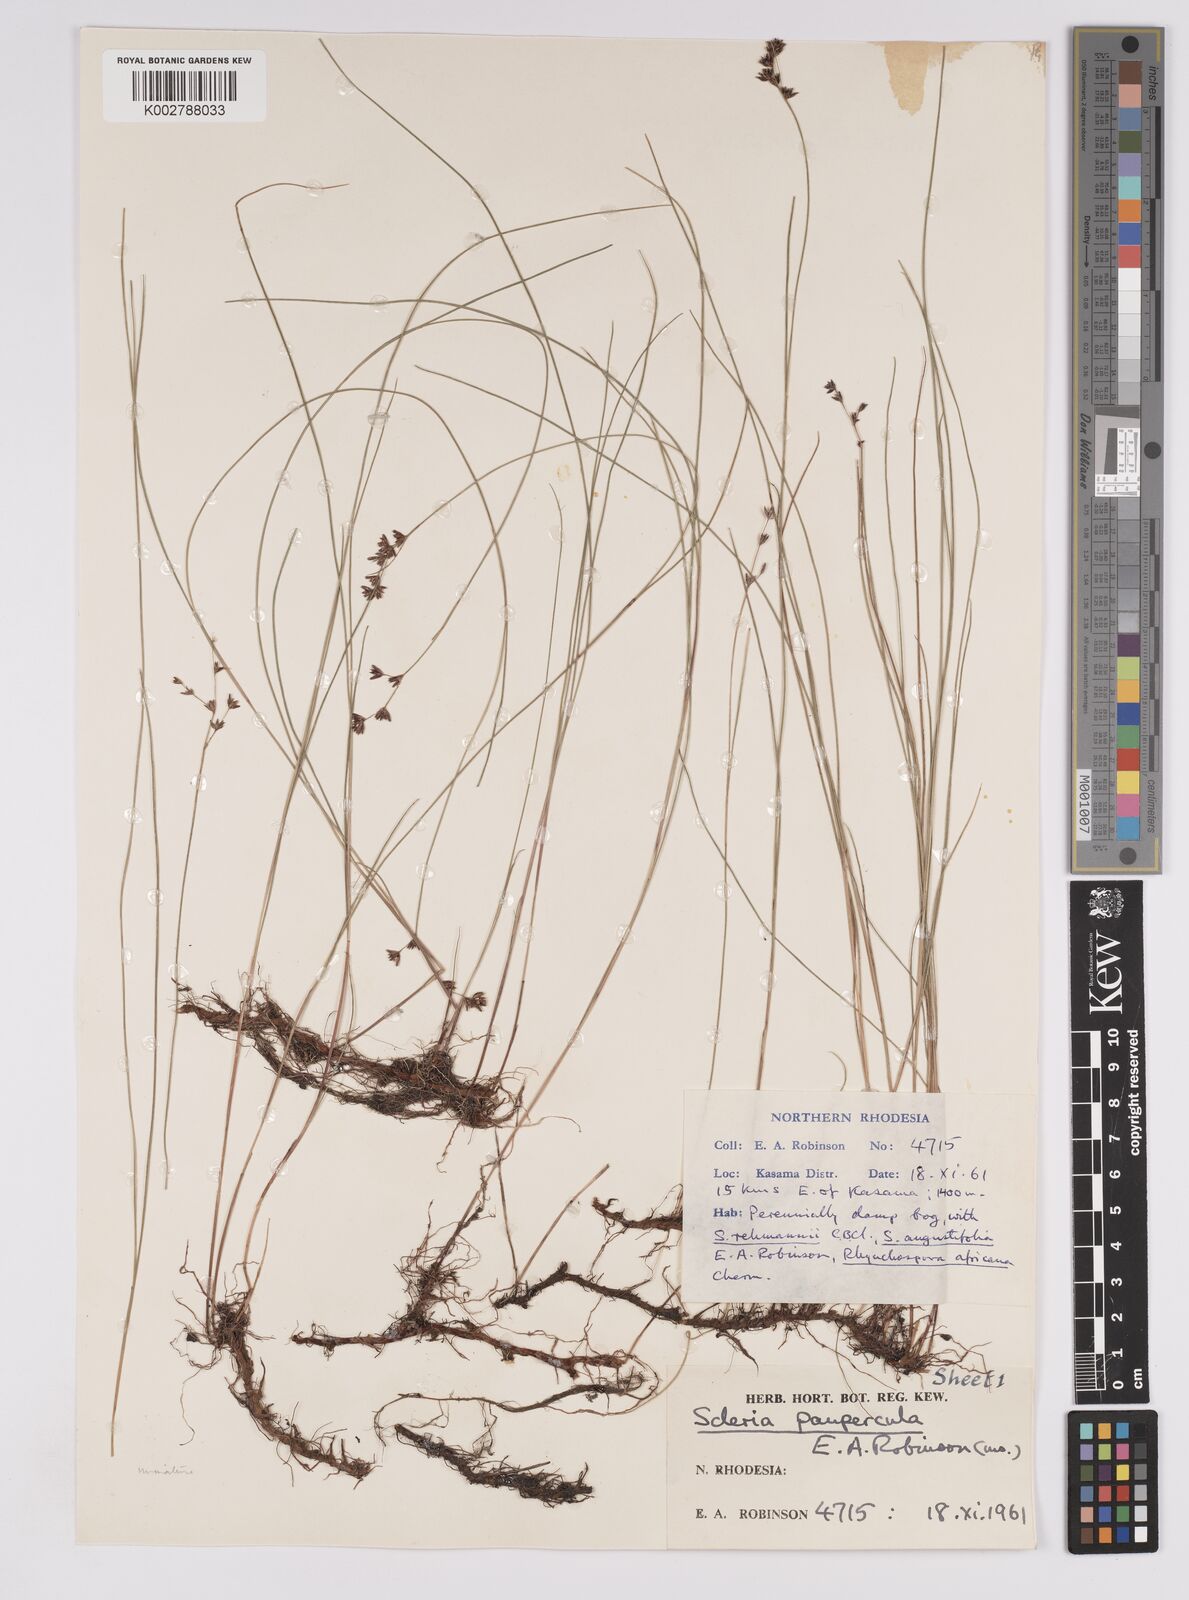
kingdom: Plantae
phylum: Tracheophyta
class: Liliopsida
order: Poales
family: Cyperaceae
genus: Scleria
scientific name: Scleria paupercula
